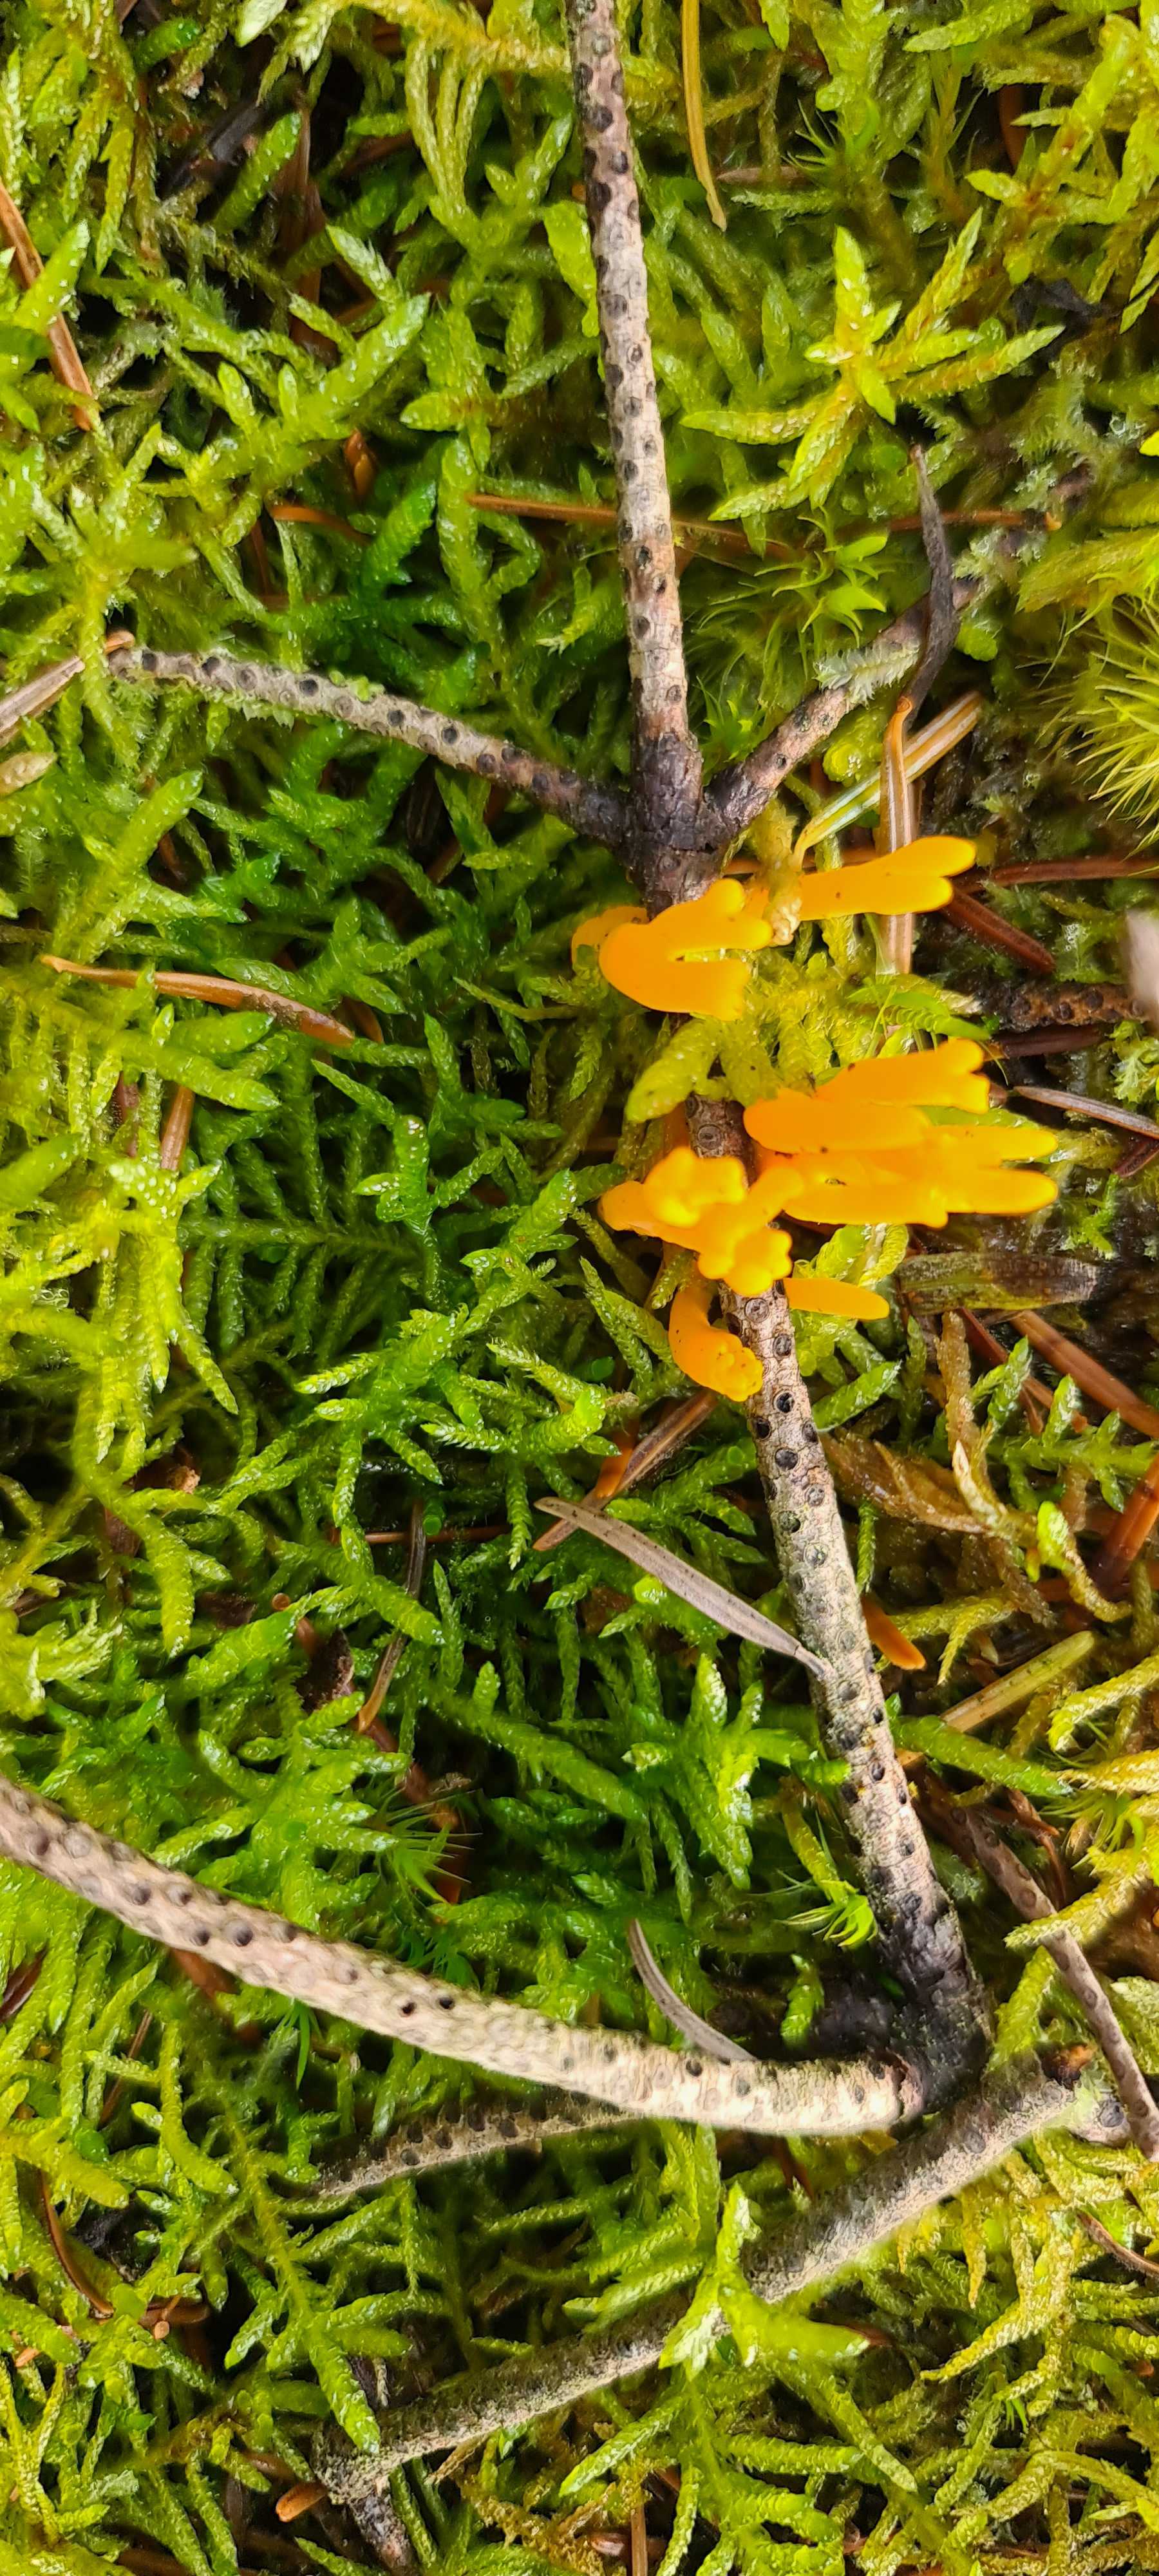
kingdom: Fungi
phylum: Basidiomycota
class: Dacrymycetes
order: Dacrymycetales
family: Dacrymycetaceae
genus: Calocera
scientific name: Calocera viscosa
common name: almindelig guldgaffel
